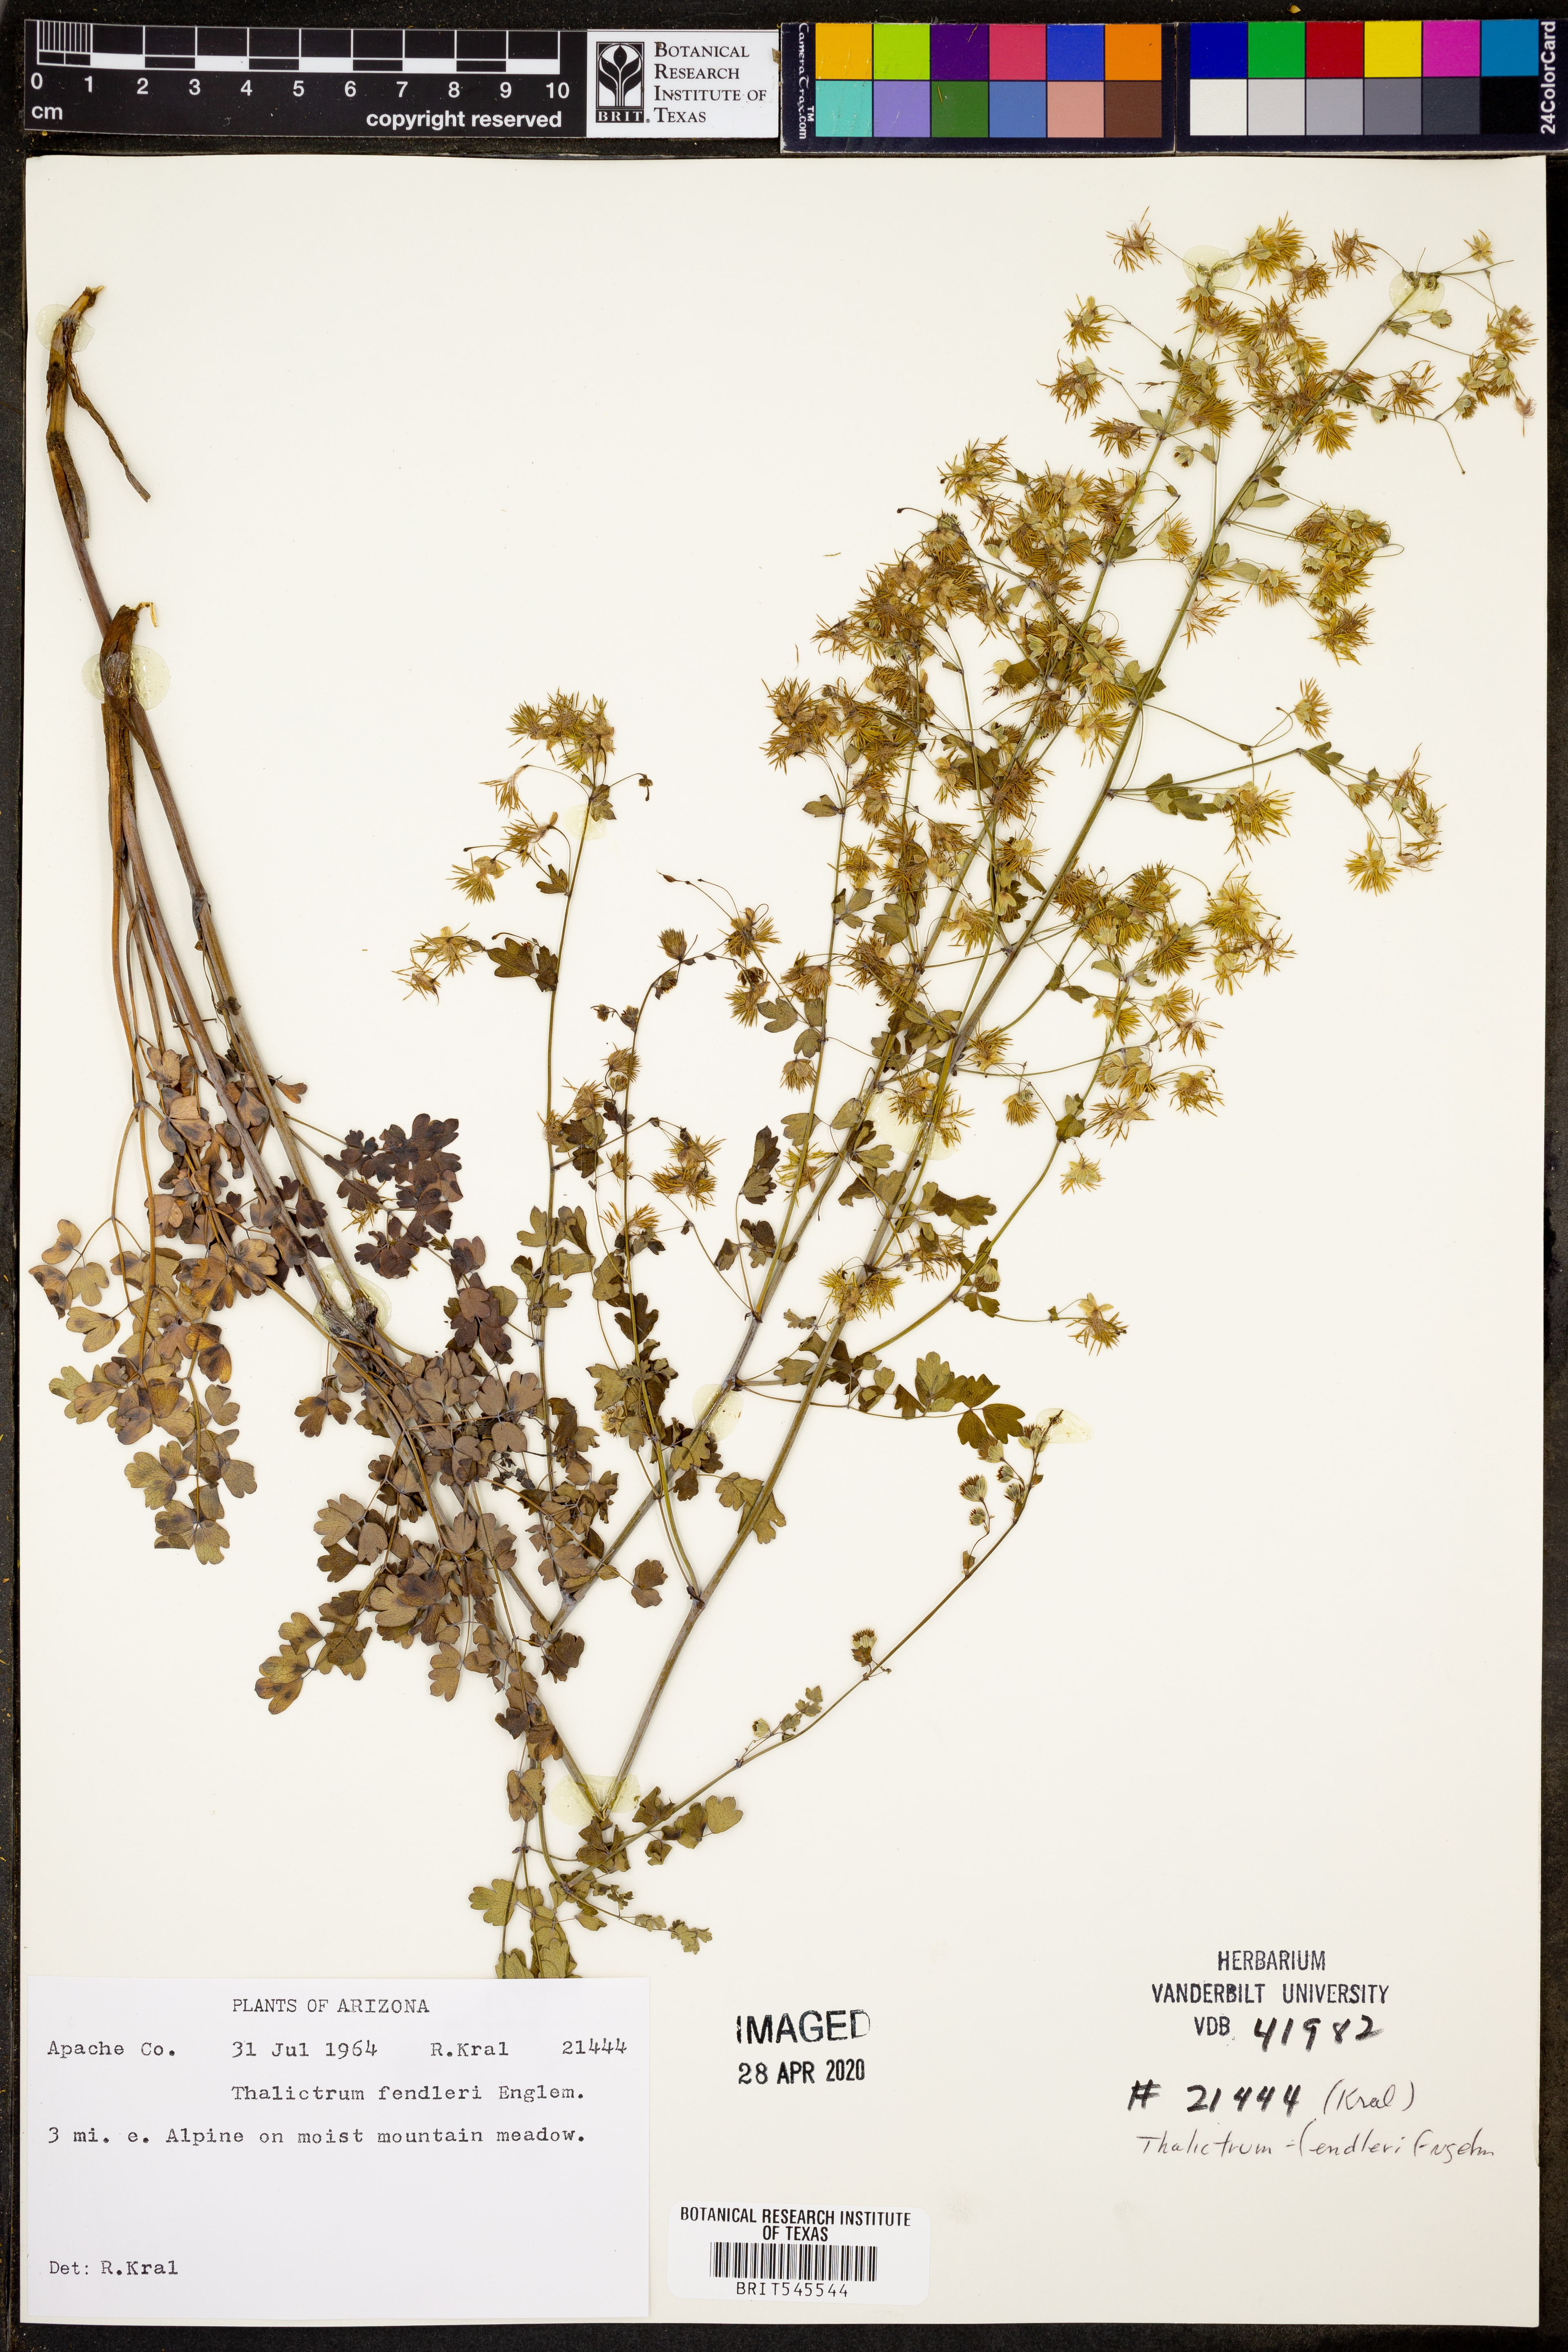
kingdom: Plantae
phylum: Tracheophyta
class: Magnoliopsida
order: Ranunculales
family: Ranunculaceae
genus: Thalictrum
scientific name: Thalictrum fendleri
